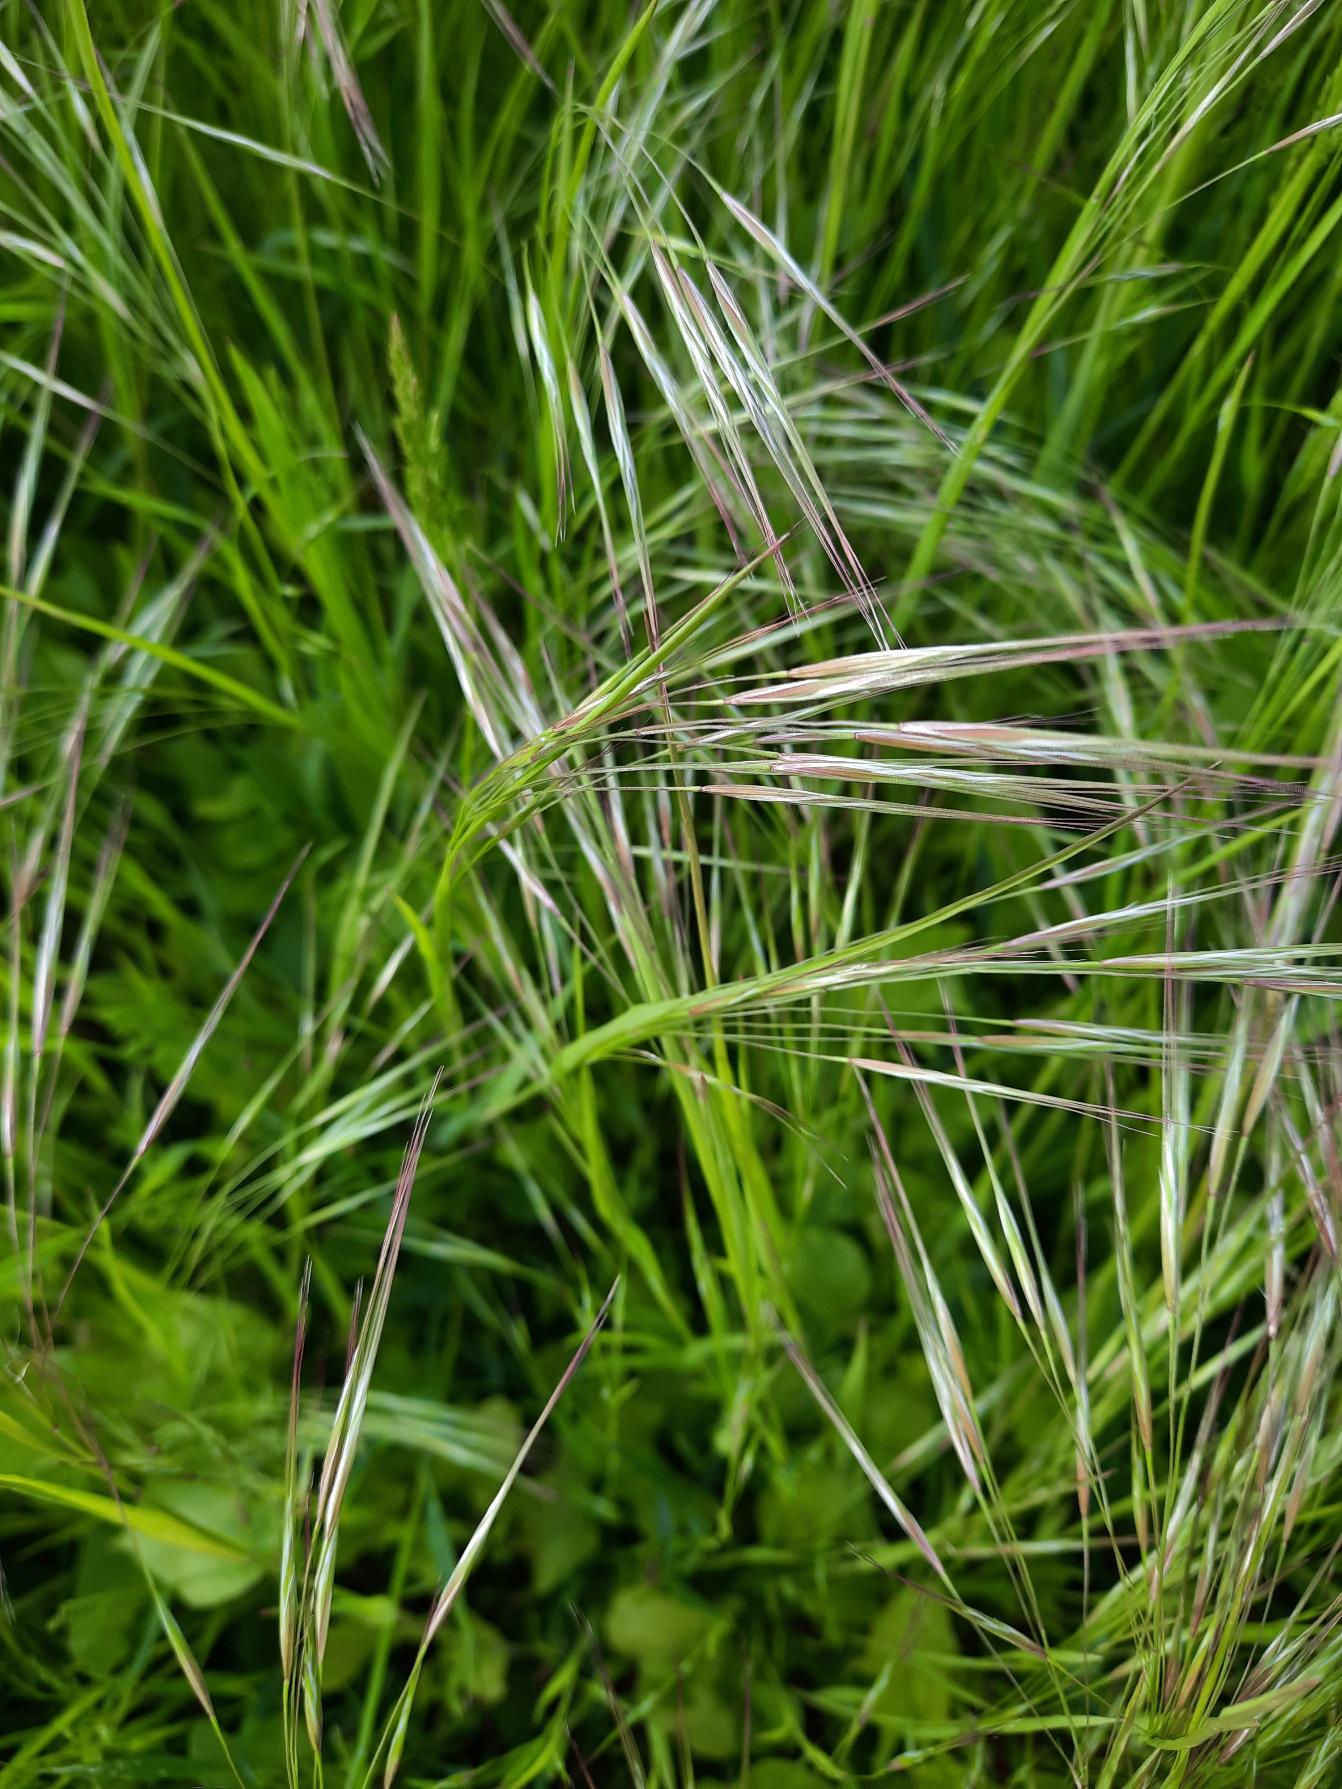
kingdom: Plantae
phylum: Tracheophyta
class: Liliopsida
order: Poales
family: Poaceae
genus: Bromus
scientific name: Bromus sterilis
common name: Gold hejre
